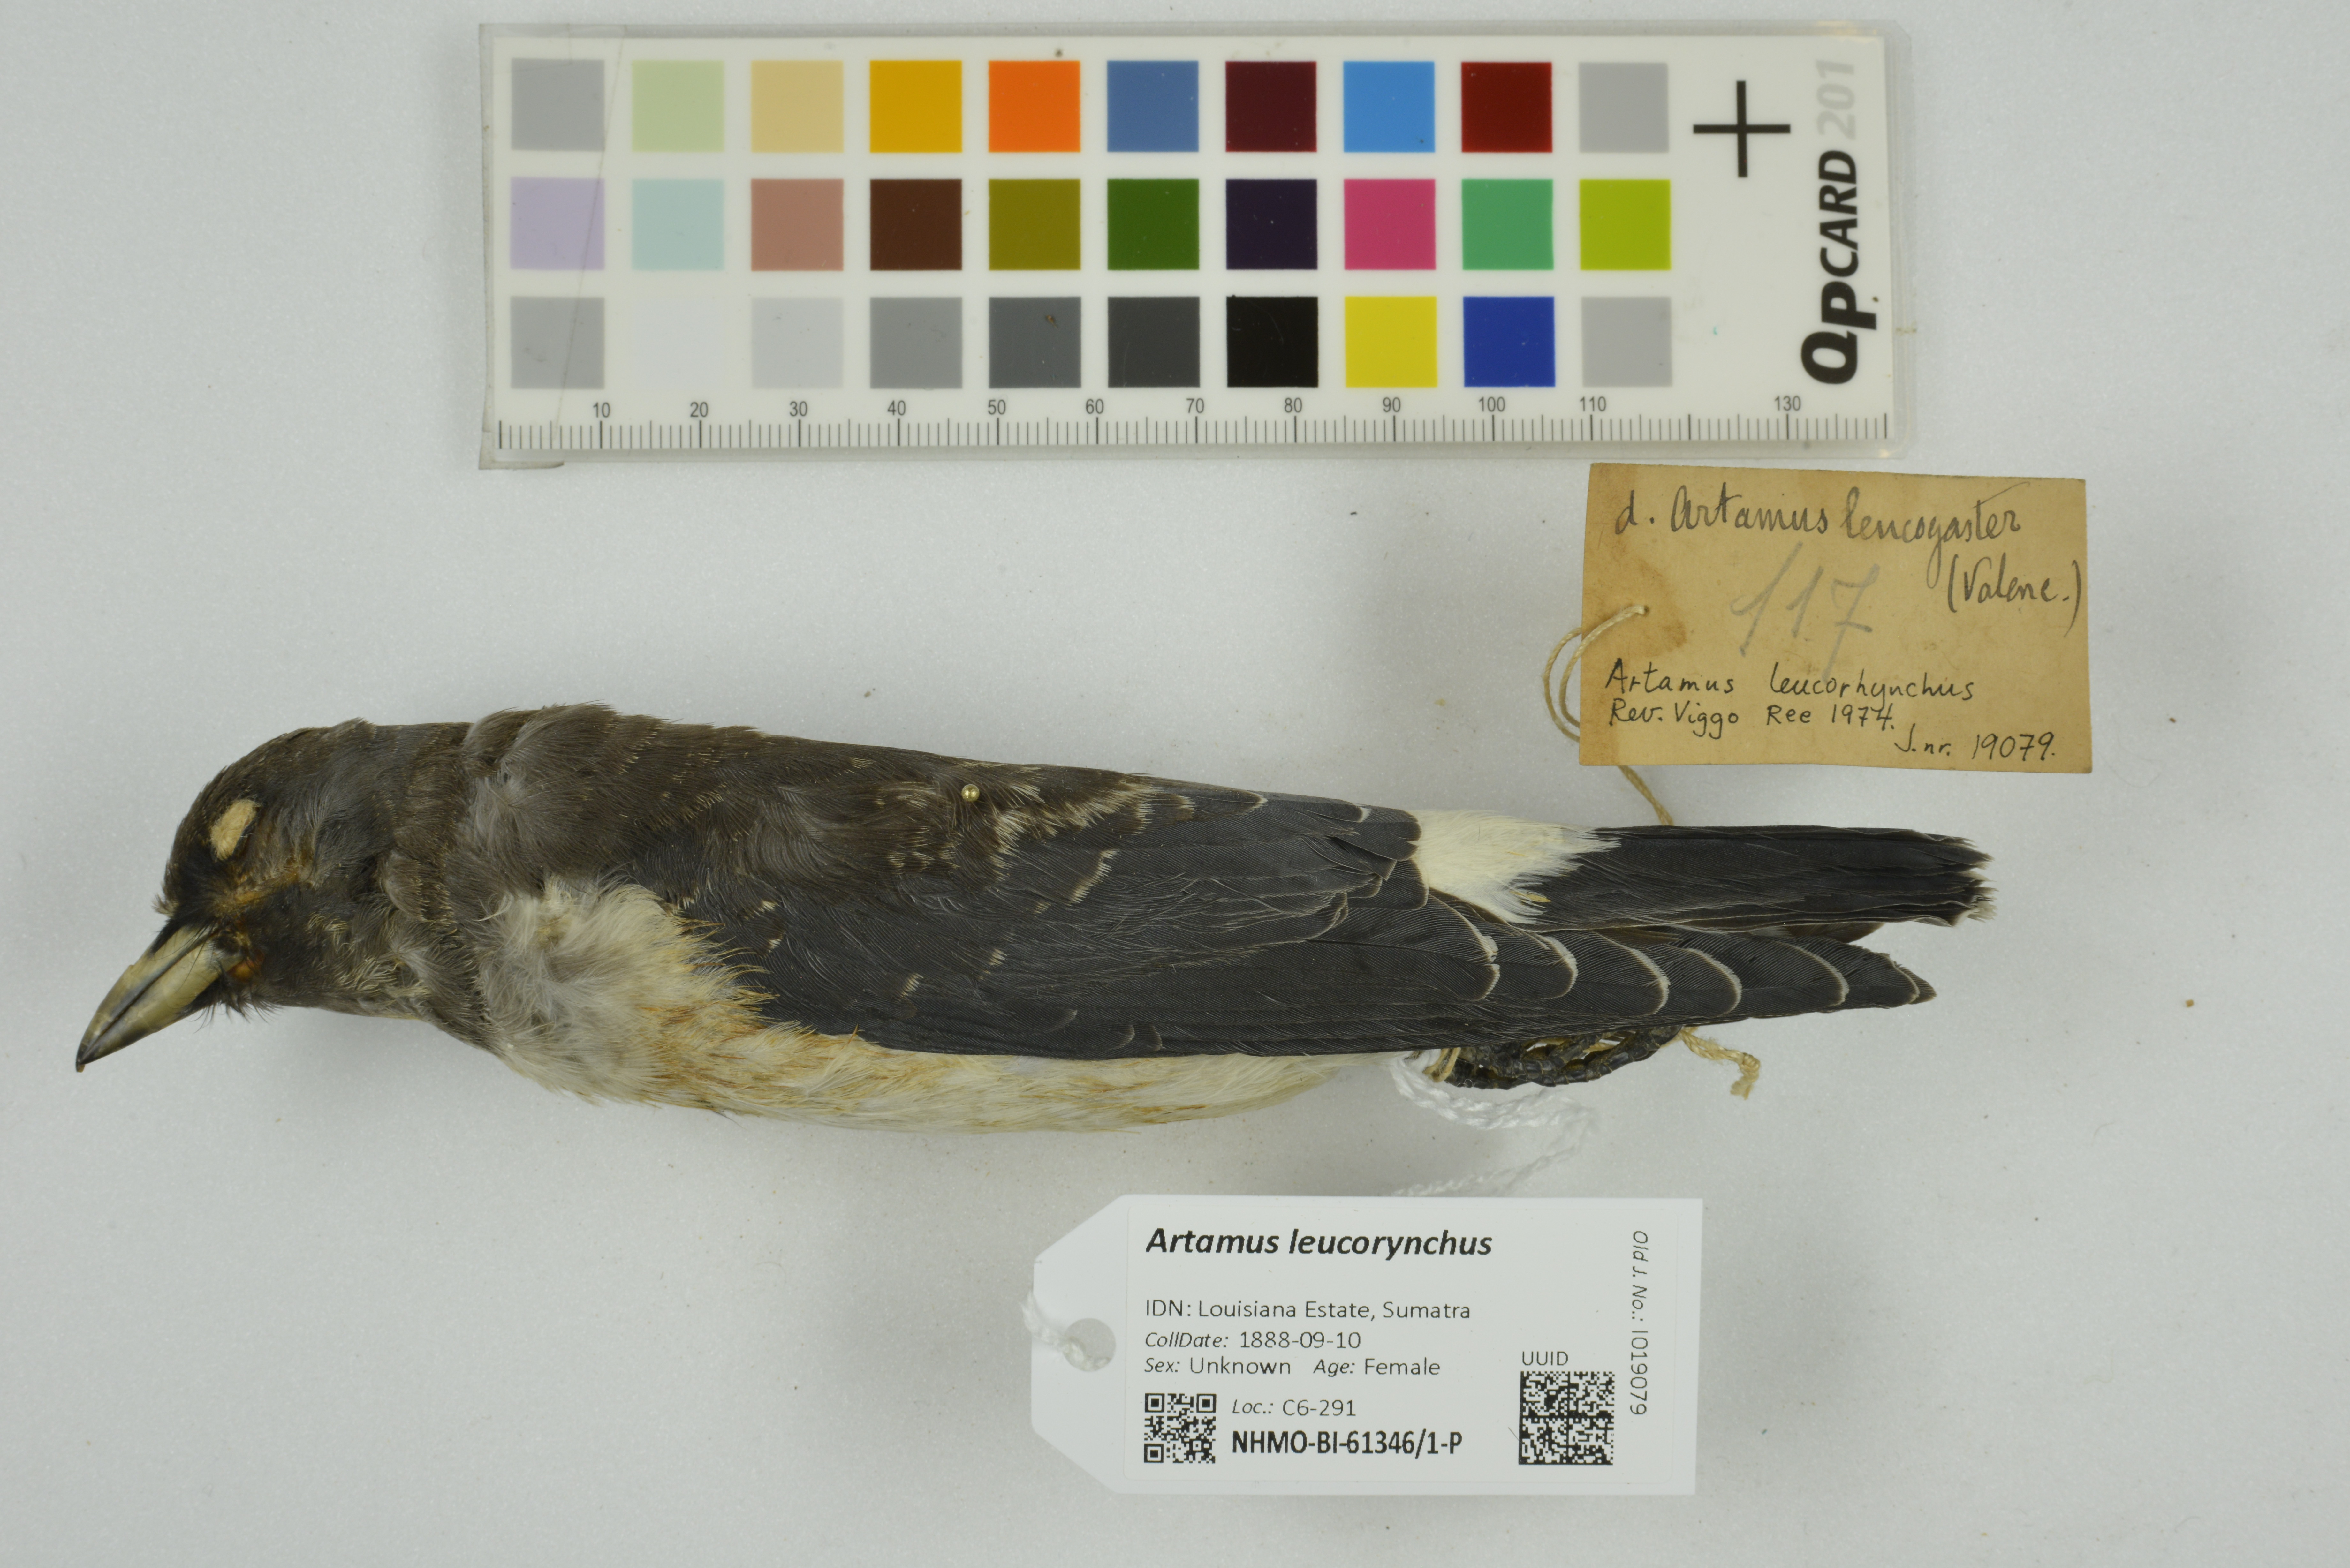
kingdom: Animalia
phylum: Chordata
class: Aves
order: Passeriformes
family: Artamidae
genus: Artamus
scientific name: Artamus leucoryn
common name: White-breasted woodswallow
